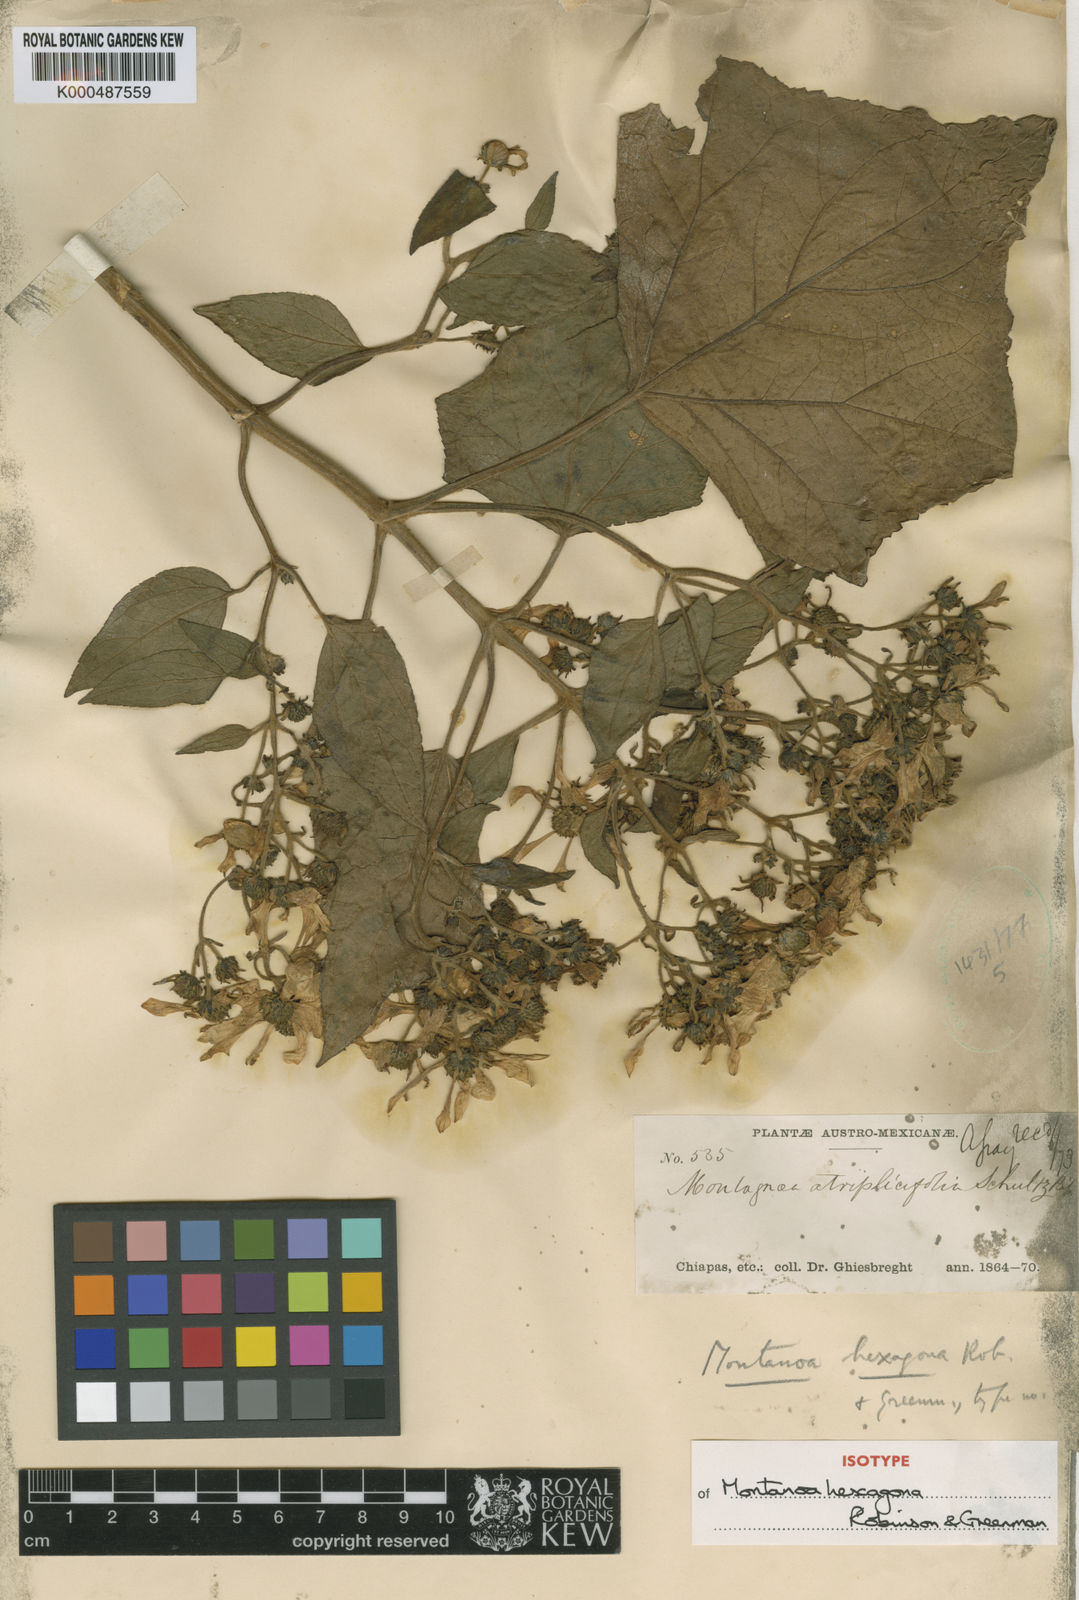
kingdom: Plantae
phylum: Tracheophyta
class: Magnoliopsida
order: Asterales
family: Asteraceae
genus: Montanoa
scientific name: Montanoa hexagona
